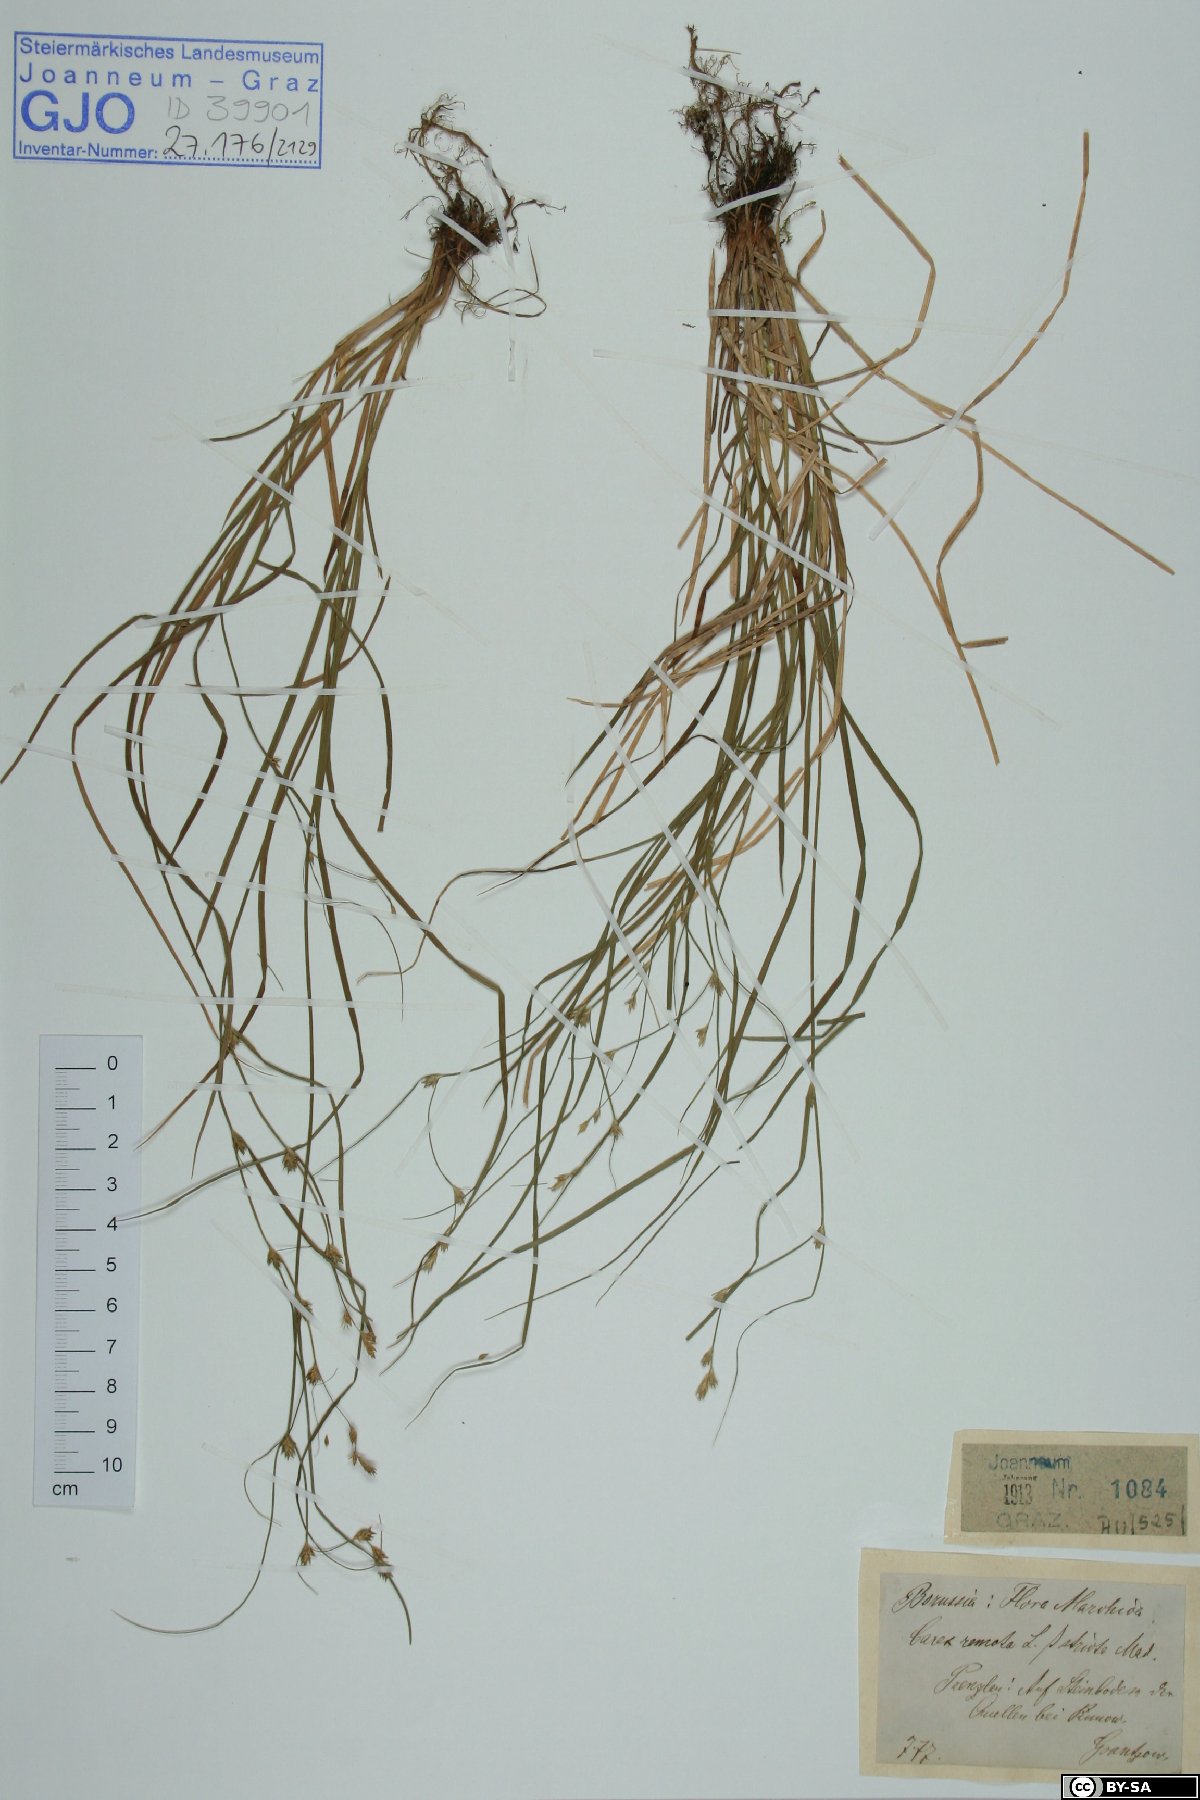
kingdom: Plantae
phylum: Tracheophyta
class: Liliopsida
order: Poales
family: Cyperaceae
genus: Carex
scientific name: Carex remota
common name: Remote sedge
